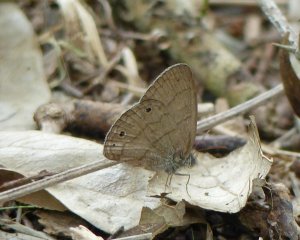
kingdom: Animalia
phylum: Arthropoda
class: Insecta
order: Lepidoptera
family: Nymphalidae
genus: Hermeuptychia
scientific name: Hermeuptychia hermes
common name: Carolina Satyr
